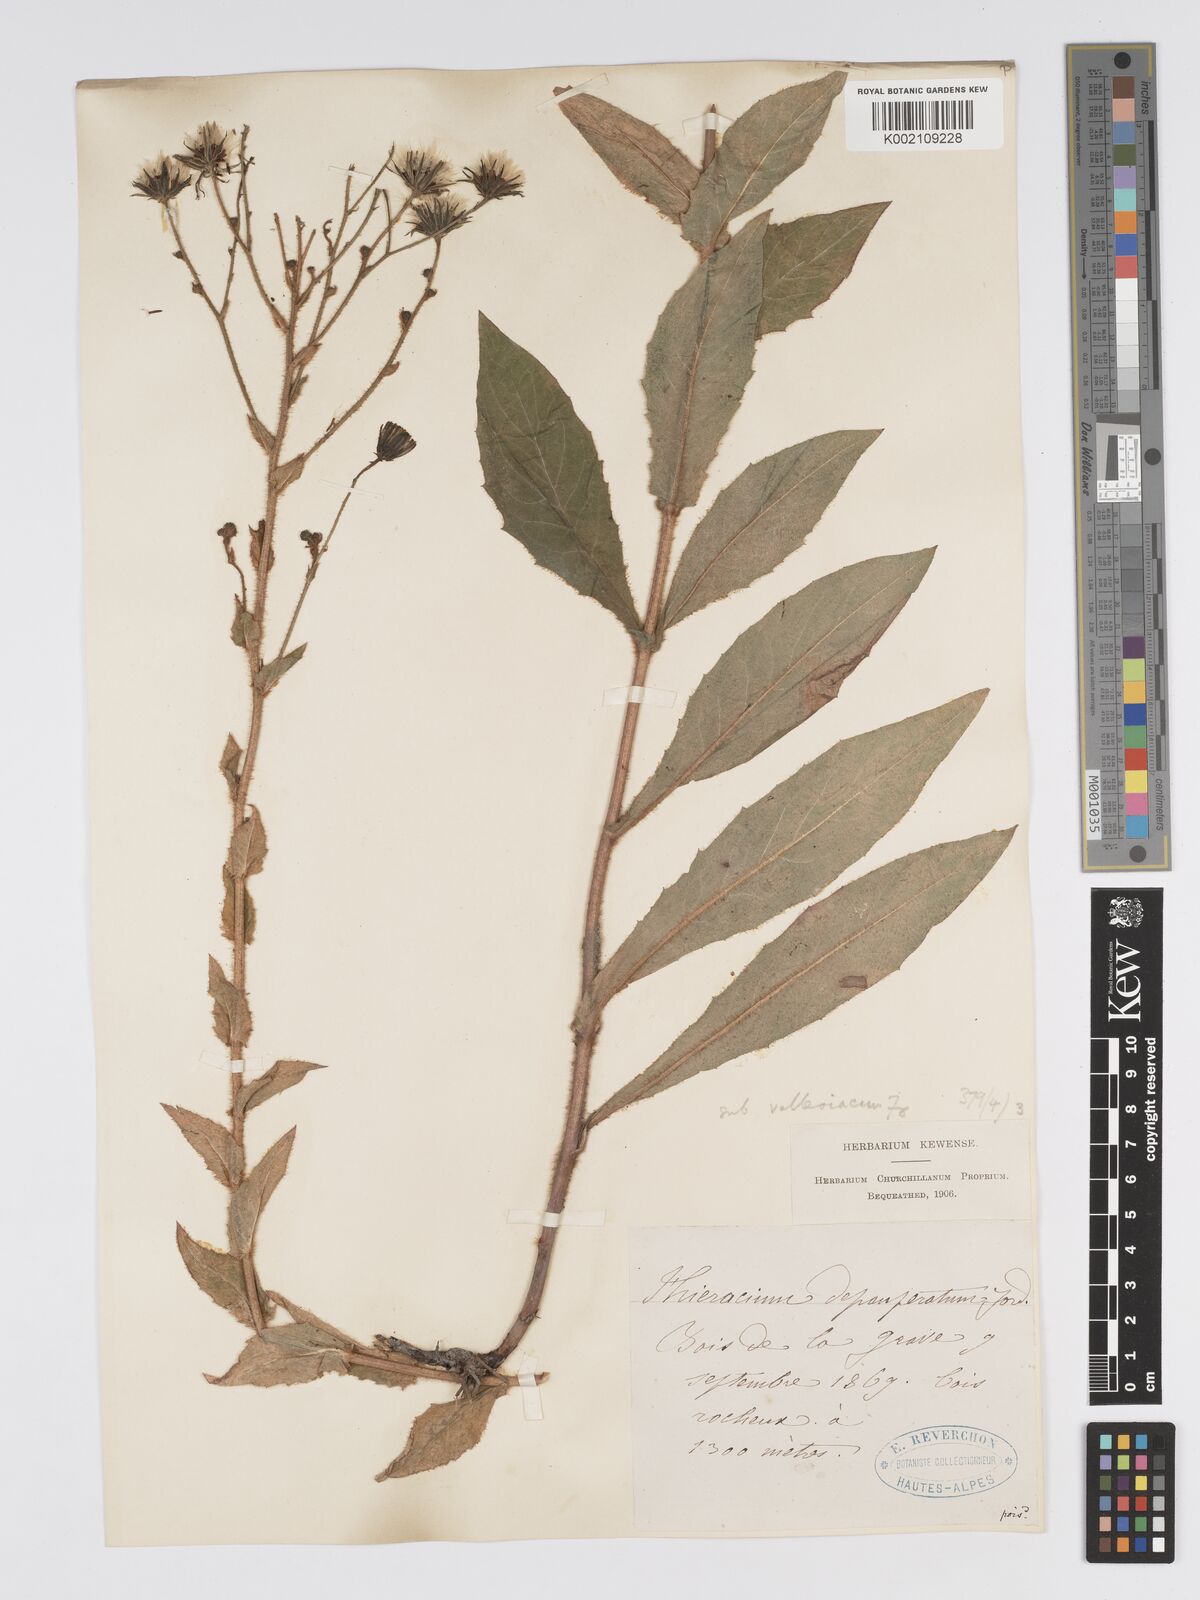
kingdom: Plantae
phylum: Tracheophyta
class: Magnoliopsida
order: Asterales
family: Asteraceae
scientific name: Asteraceae
